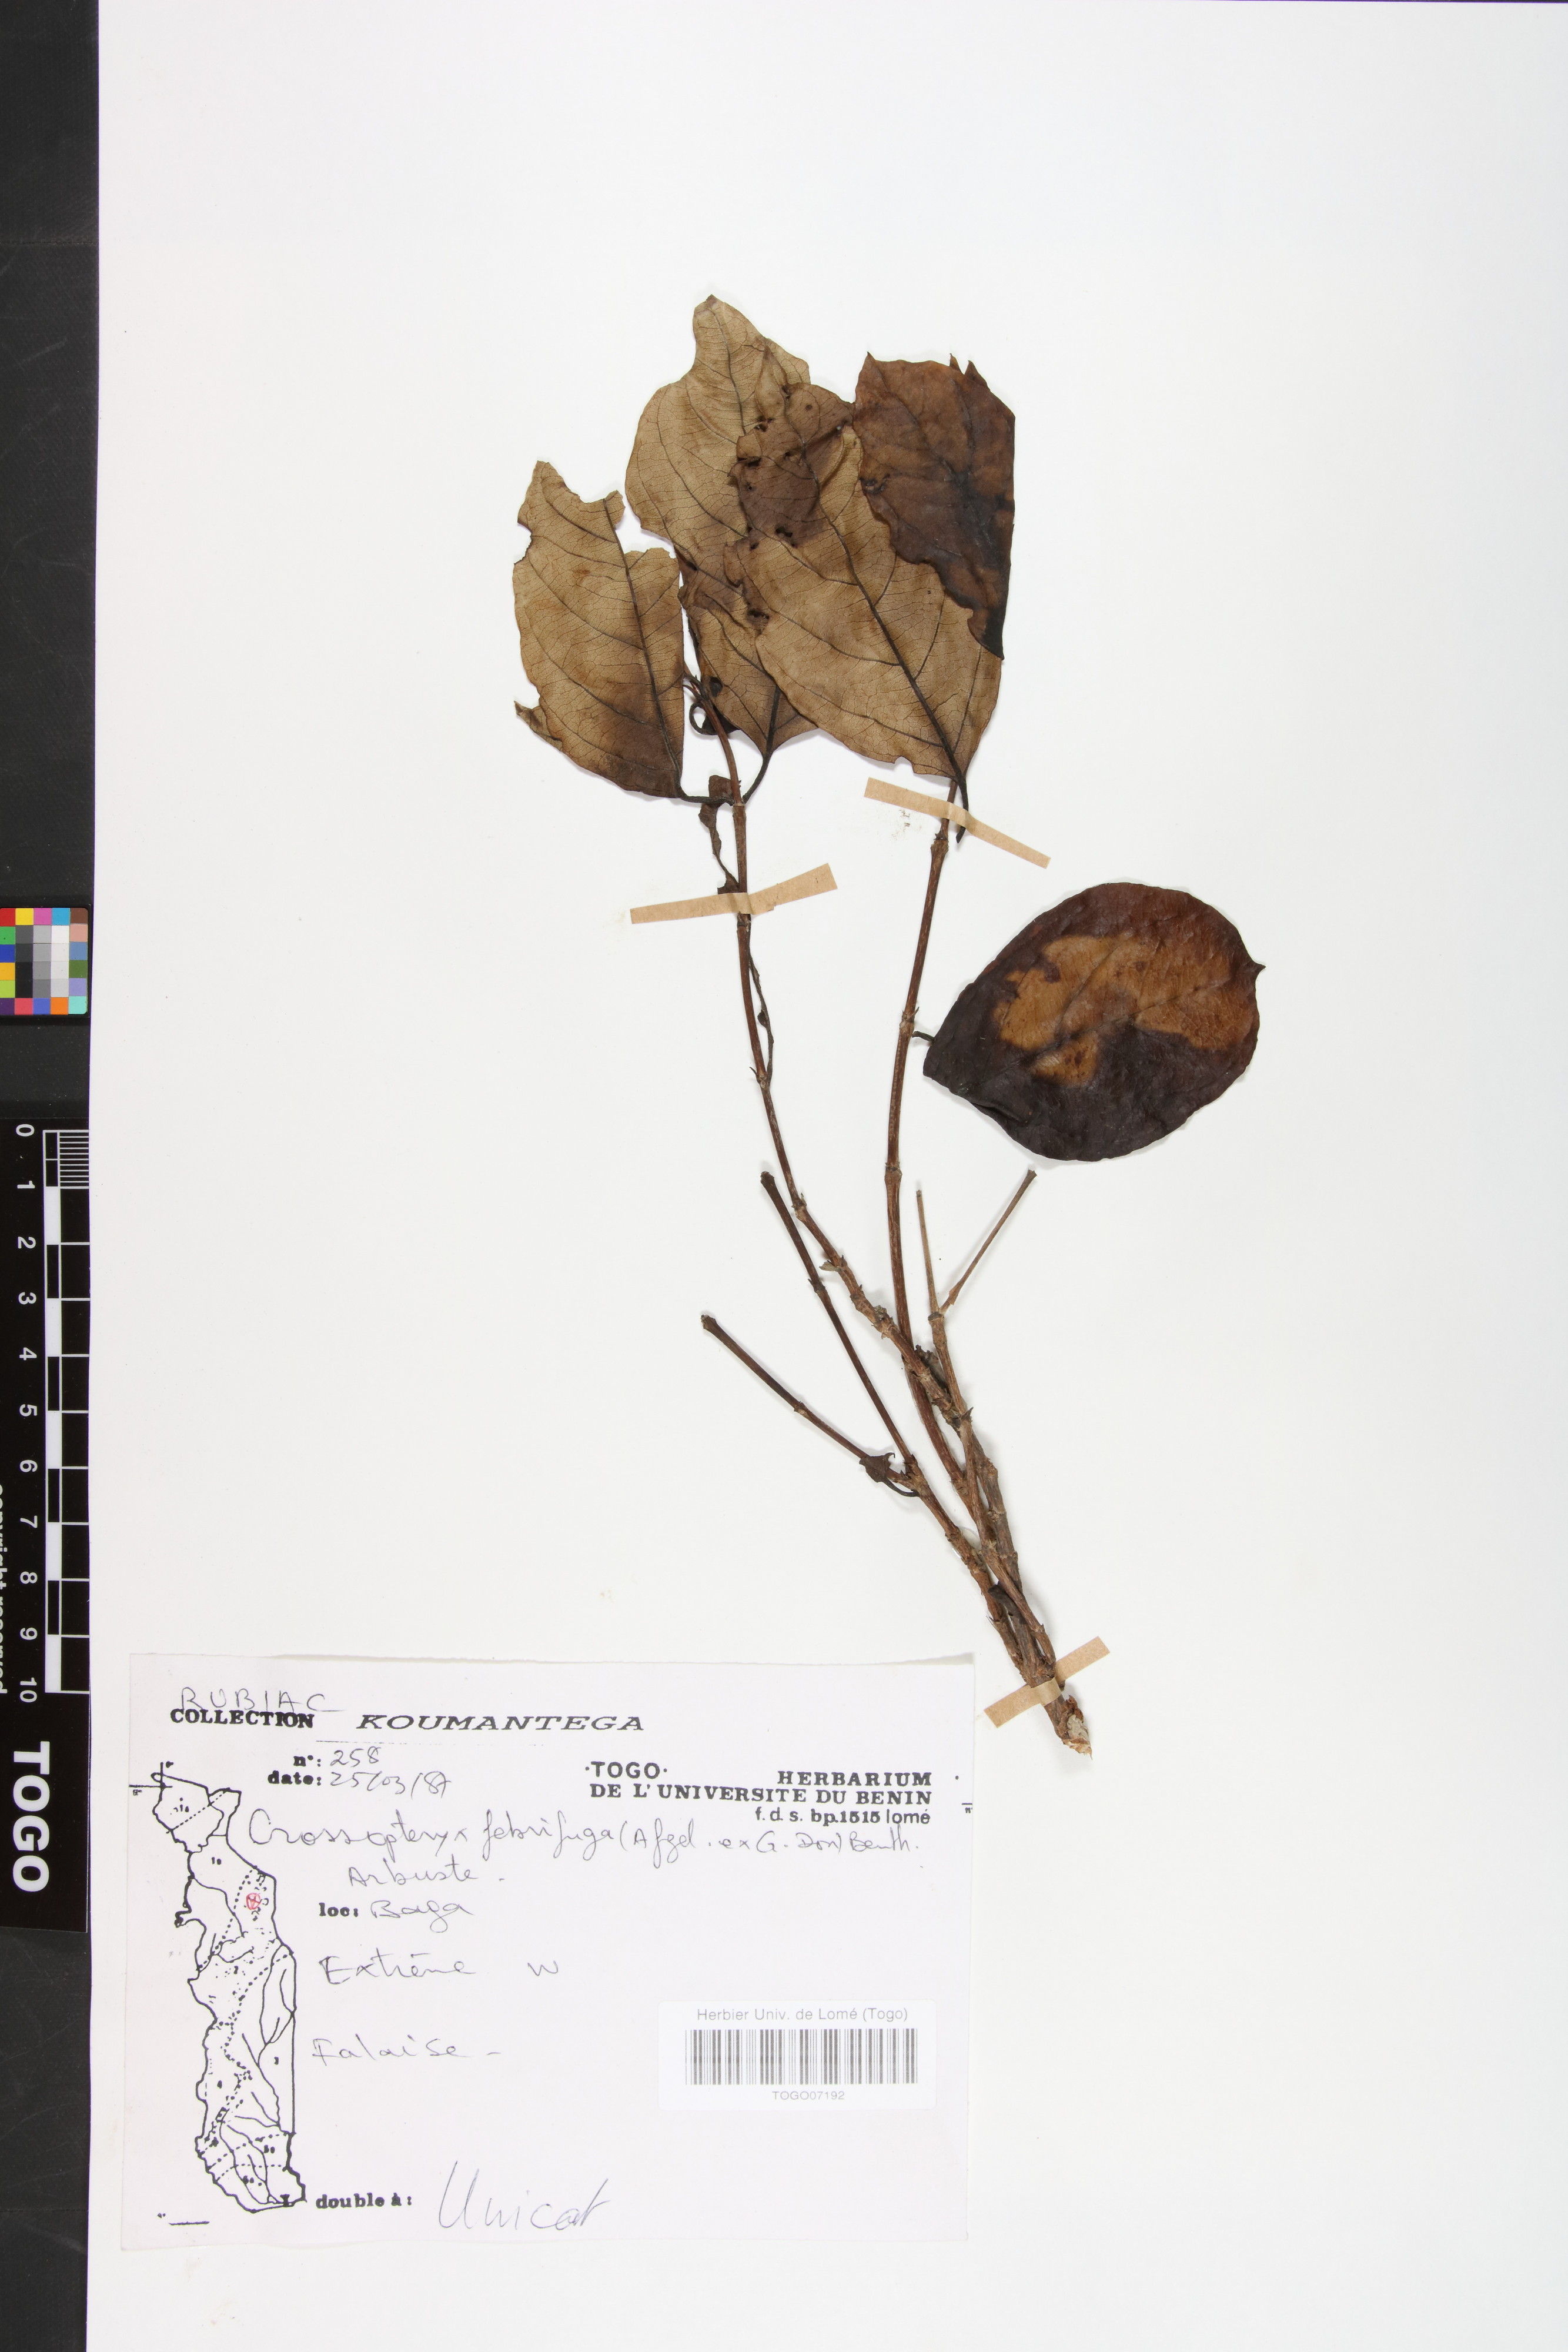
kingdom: Plantae
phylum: Tracheophyta
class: Magnoliopsida
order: Gentianales
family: Rubiaceae
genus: Crossopteryx
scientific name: Crossopteryx febrifuga
